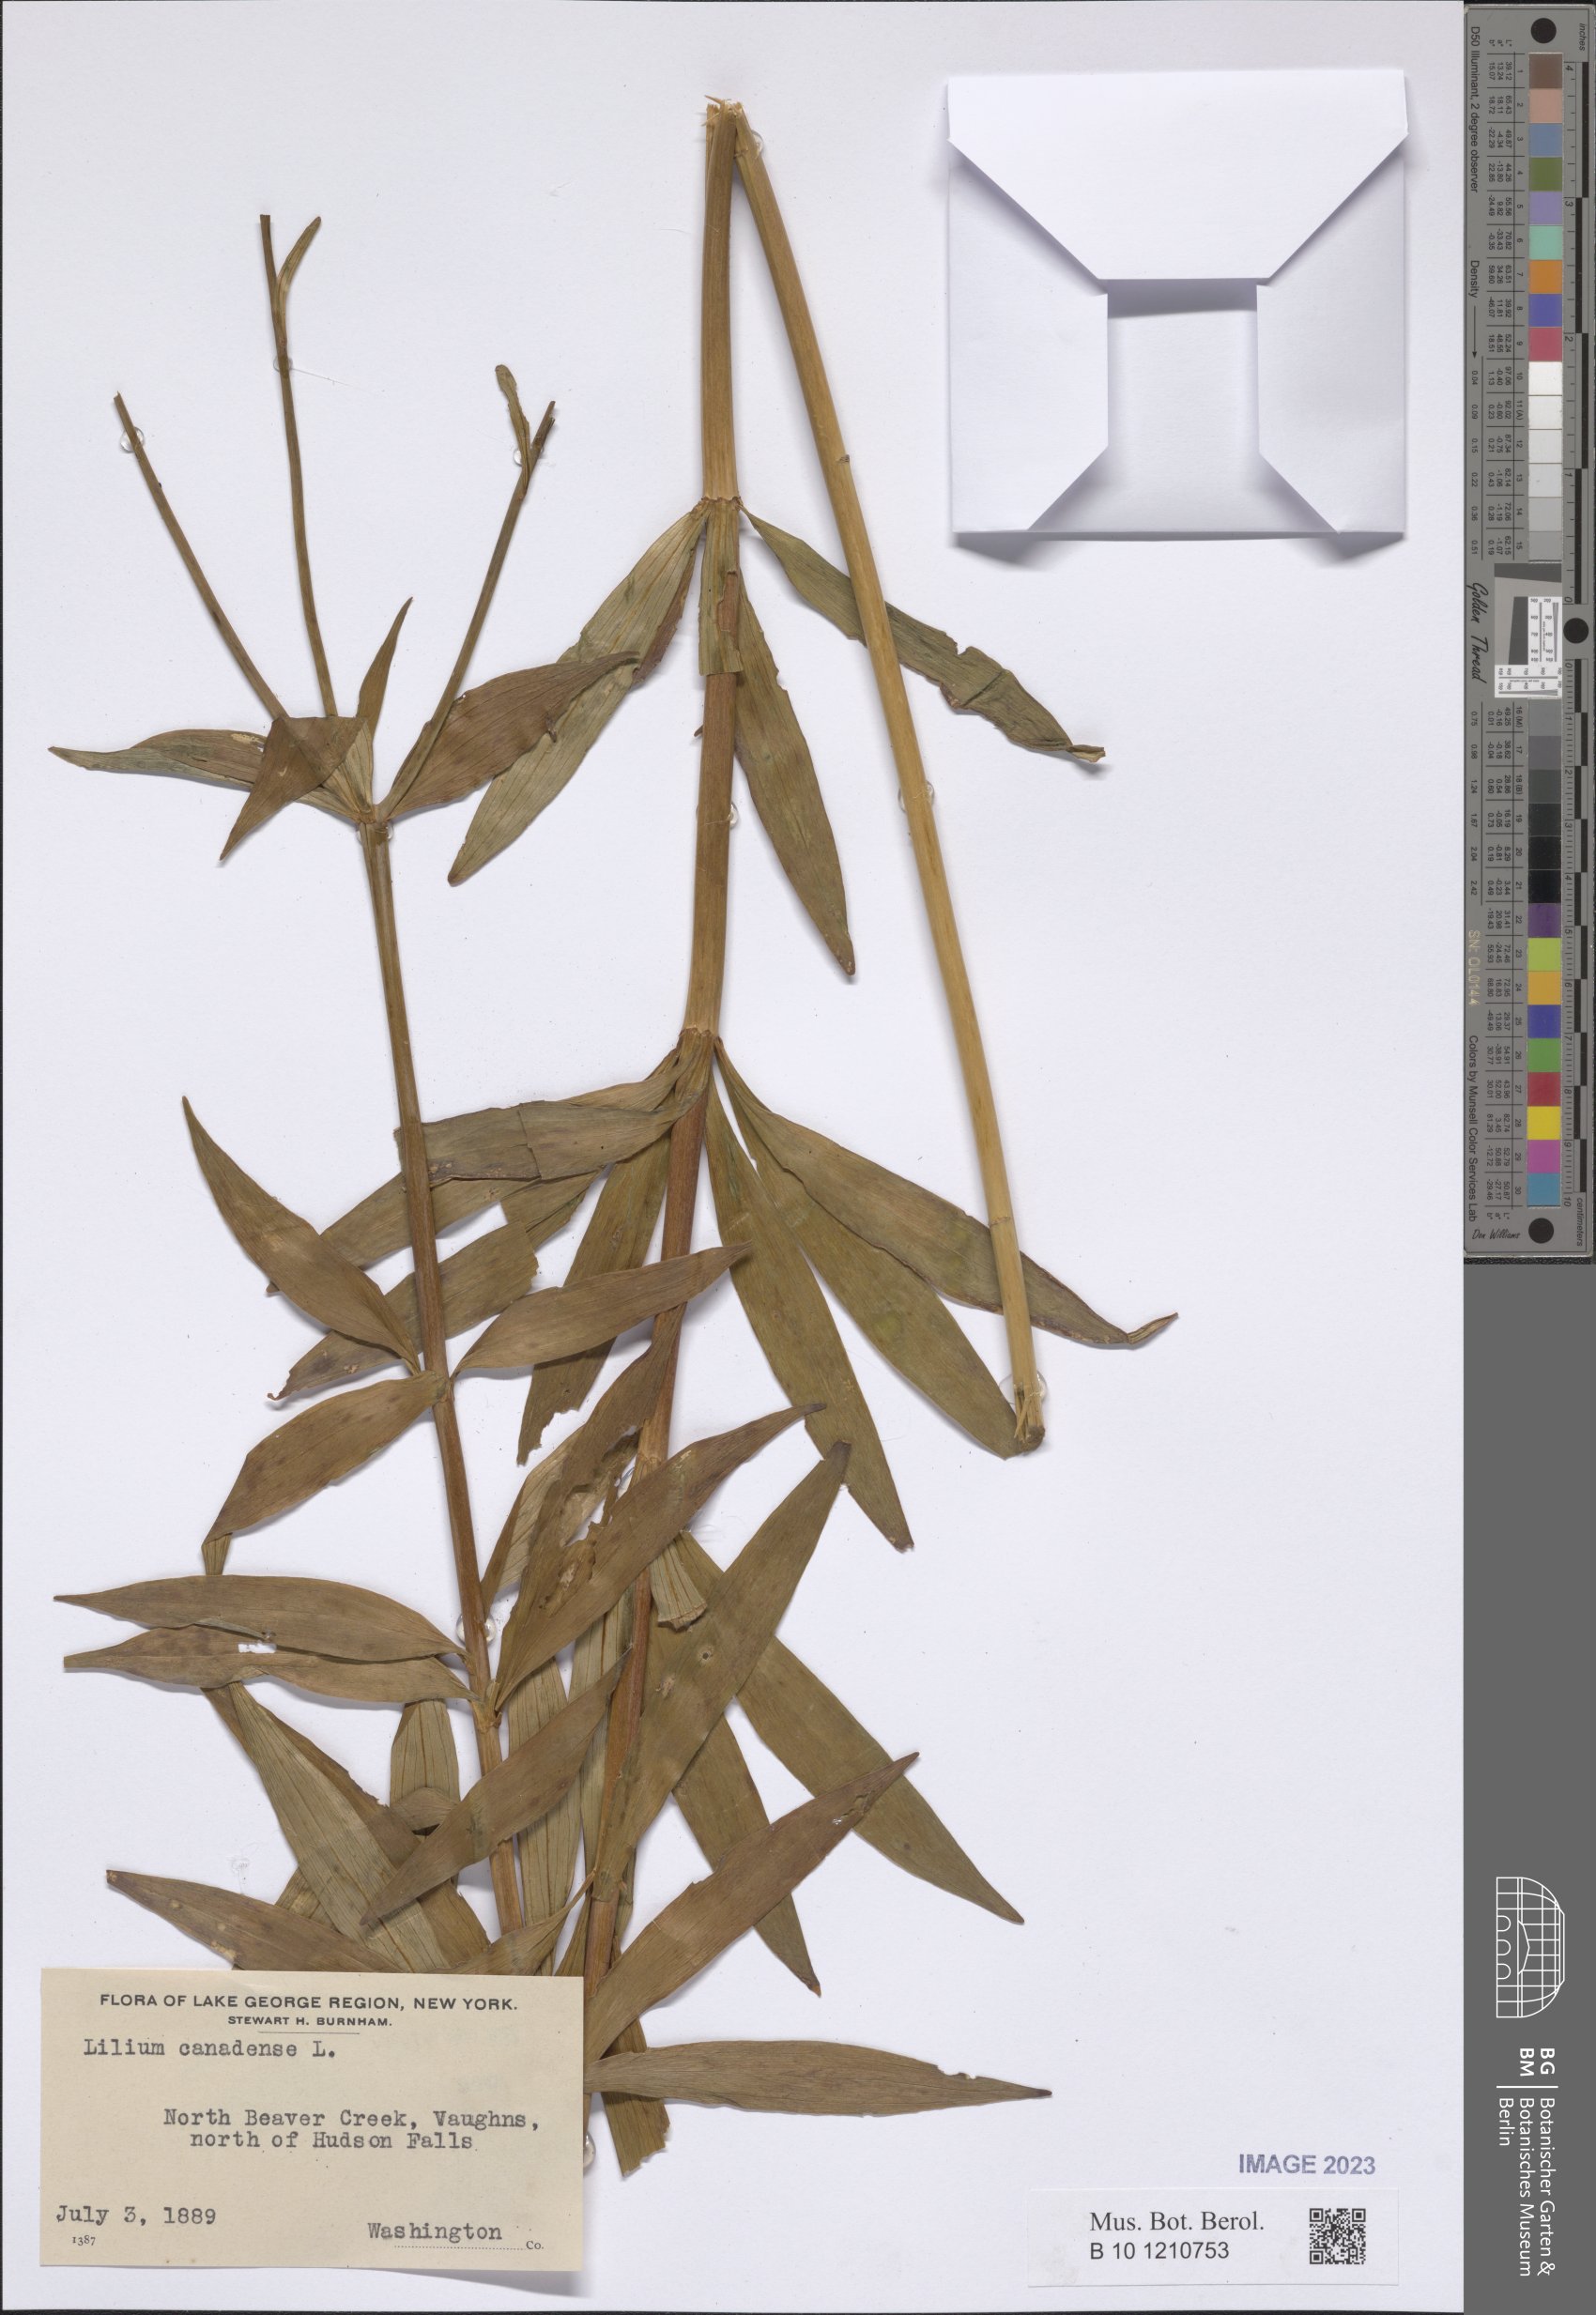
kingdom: Plantae
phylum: Tracheophyta
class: Liliopsida
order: Liliales
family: Liliaceae
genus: Lilium
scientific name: Lilium canadense
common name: Canada lily
